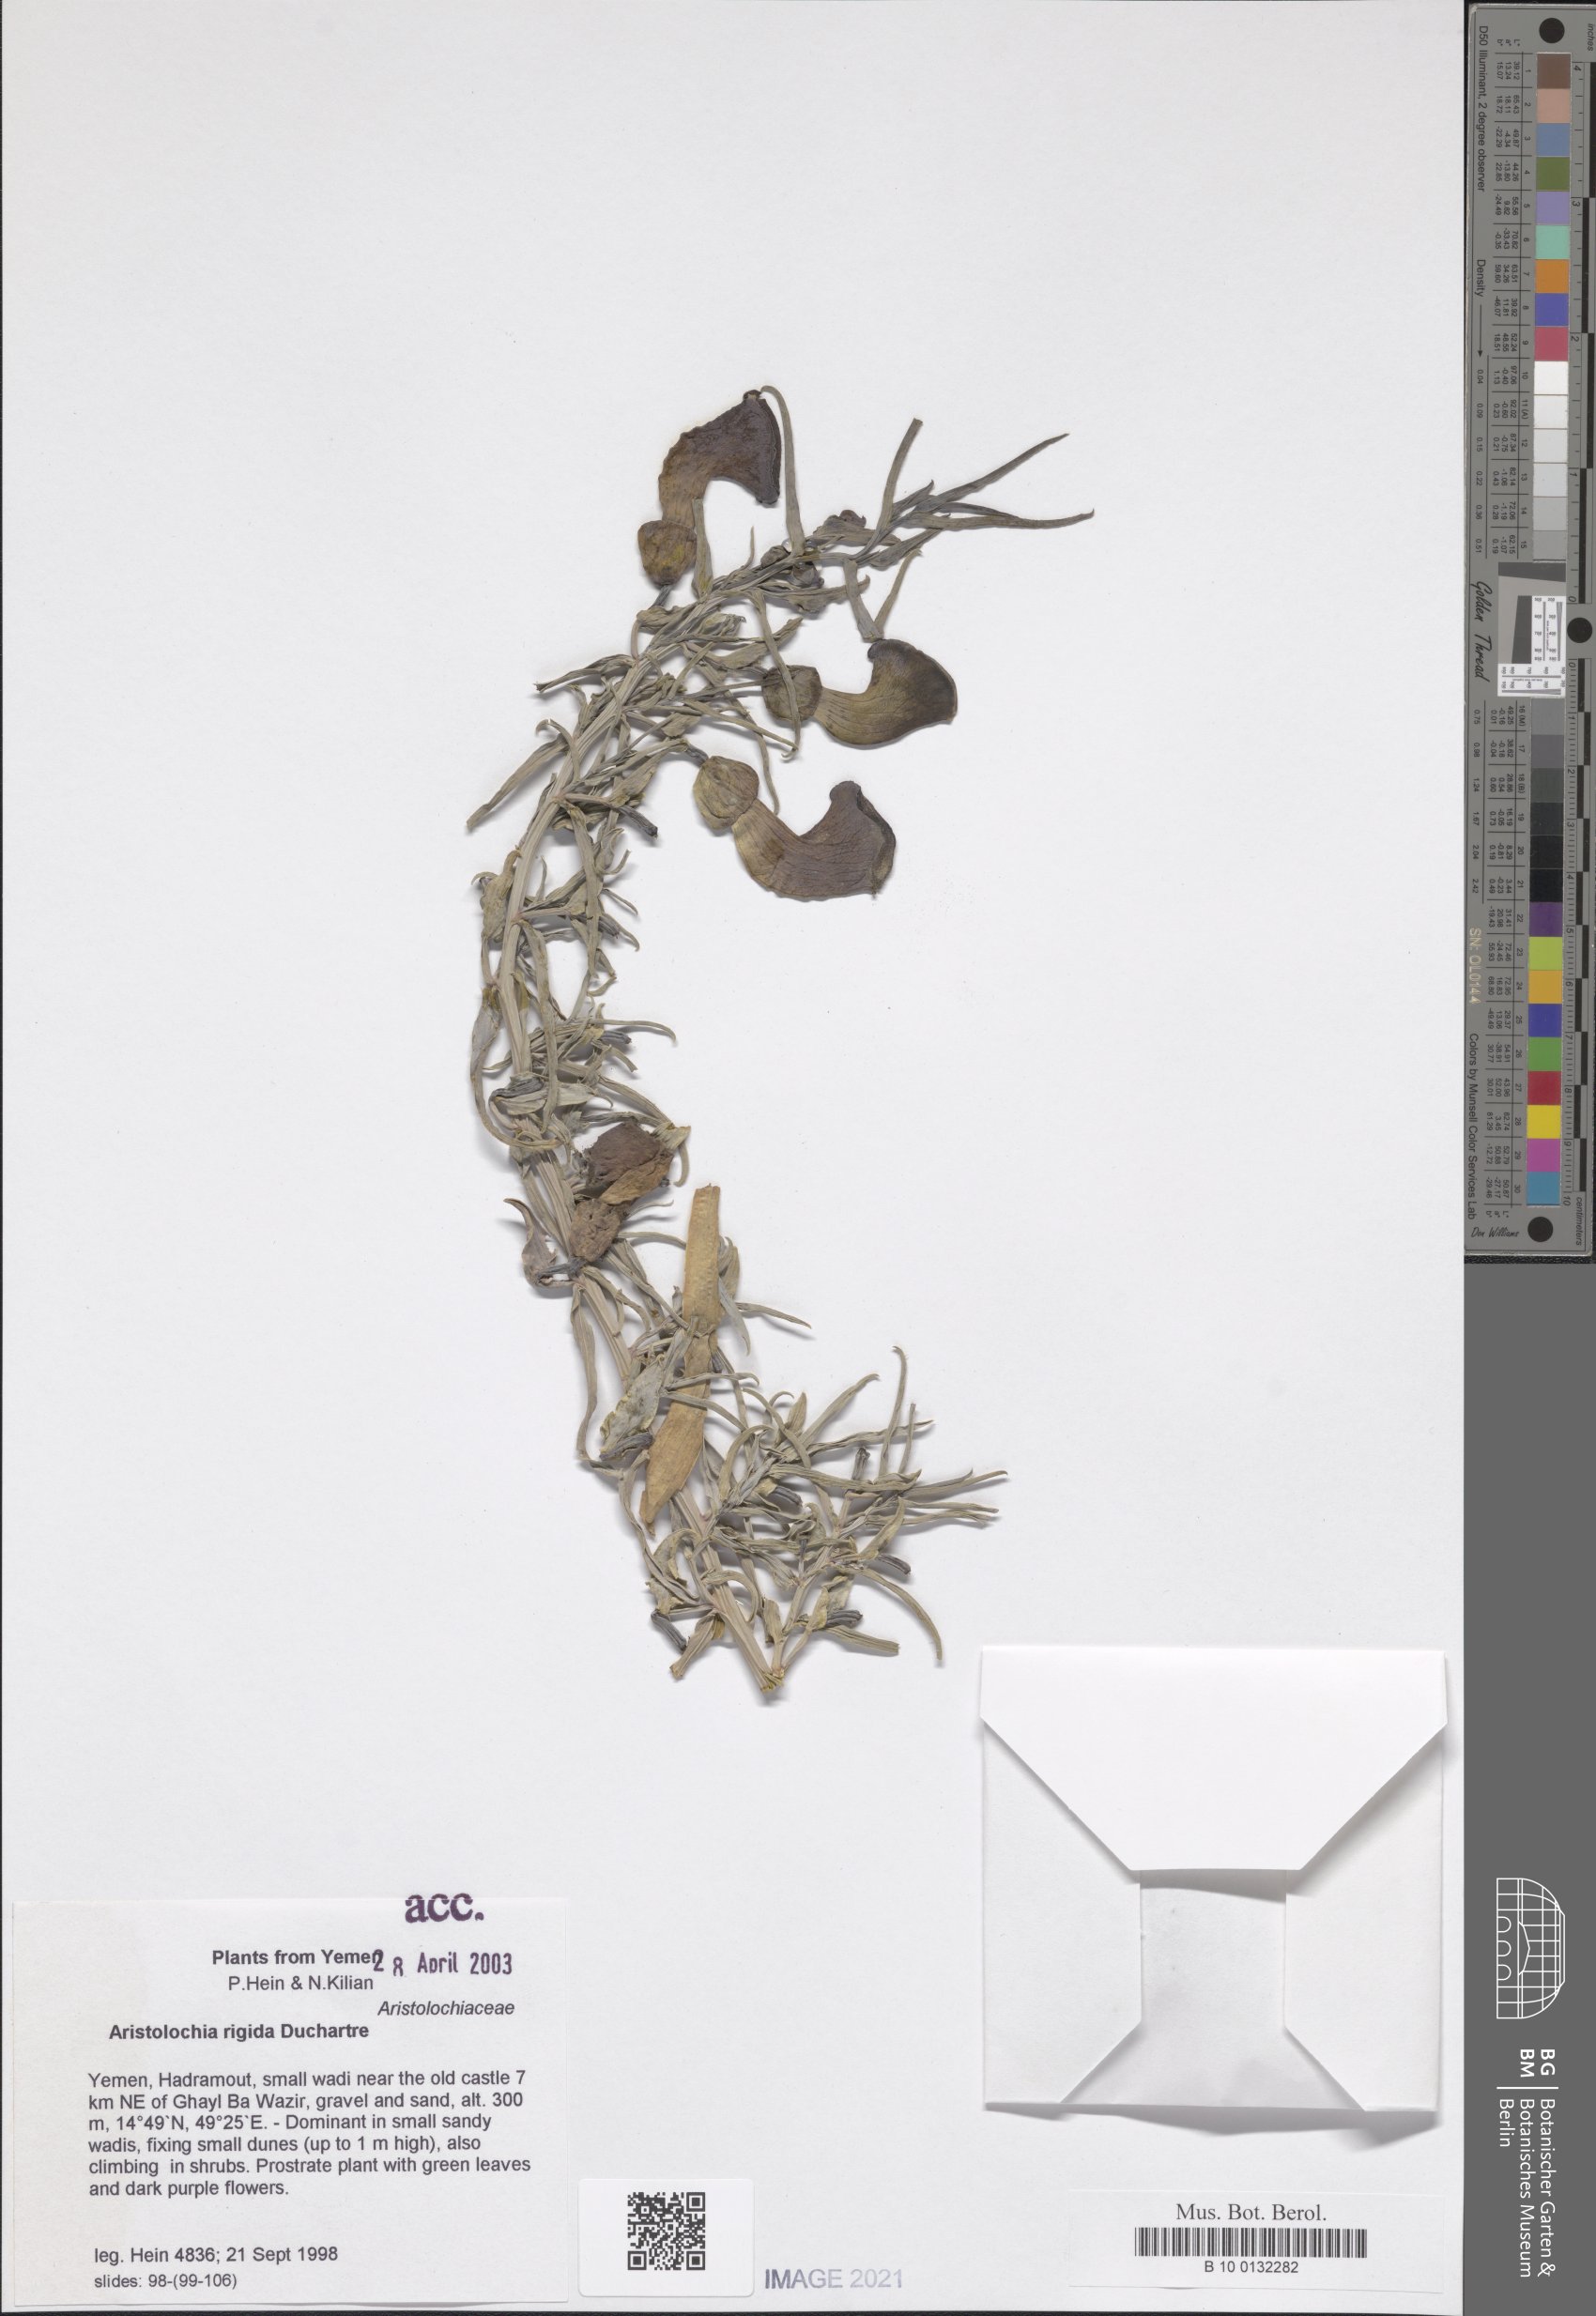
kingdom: Plantae
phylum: Tracheophyta
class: Magnoliopsida
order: Piperales
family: Aristolochiaceae
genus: Aristolochia
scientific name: Aristolochia rigida
